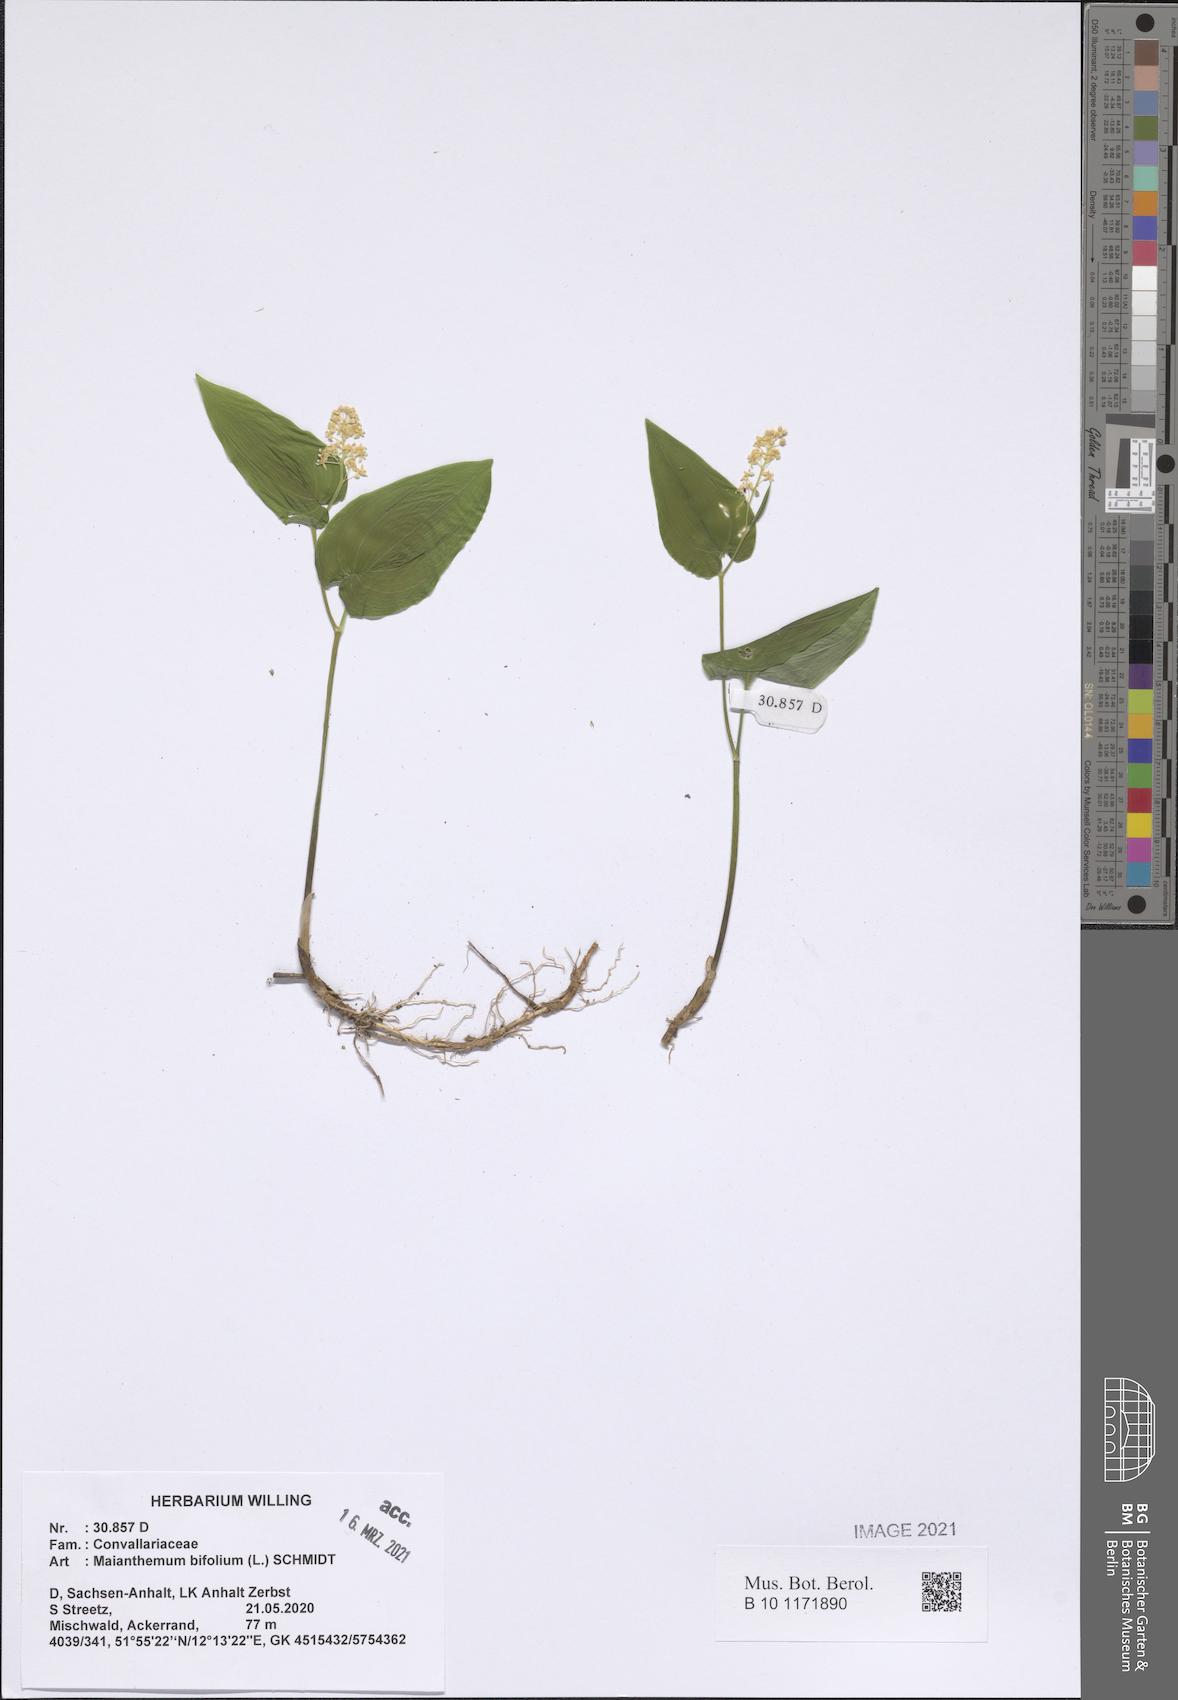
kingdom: Plantae
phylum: Tracheophyta
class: Liliopsida
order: Asparagales
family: Asparagaceae
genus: Maianthemum
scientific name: Maianthemum bifolium
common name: May lily
